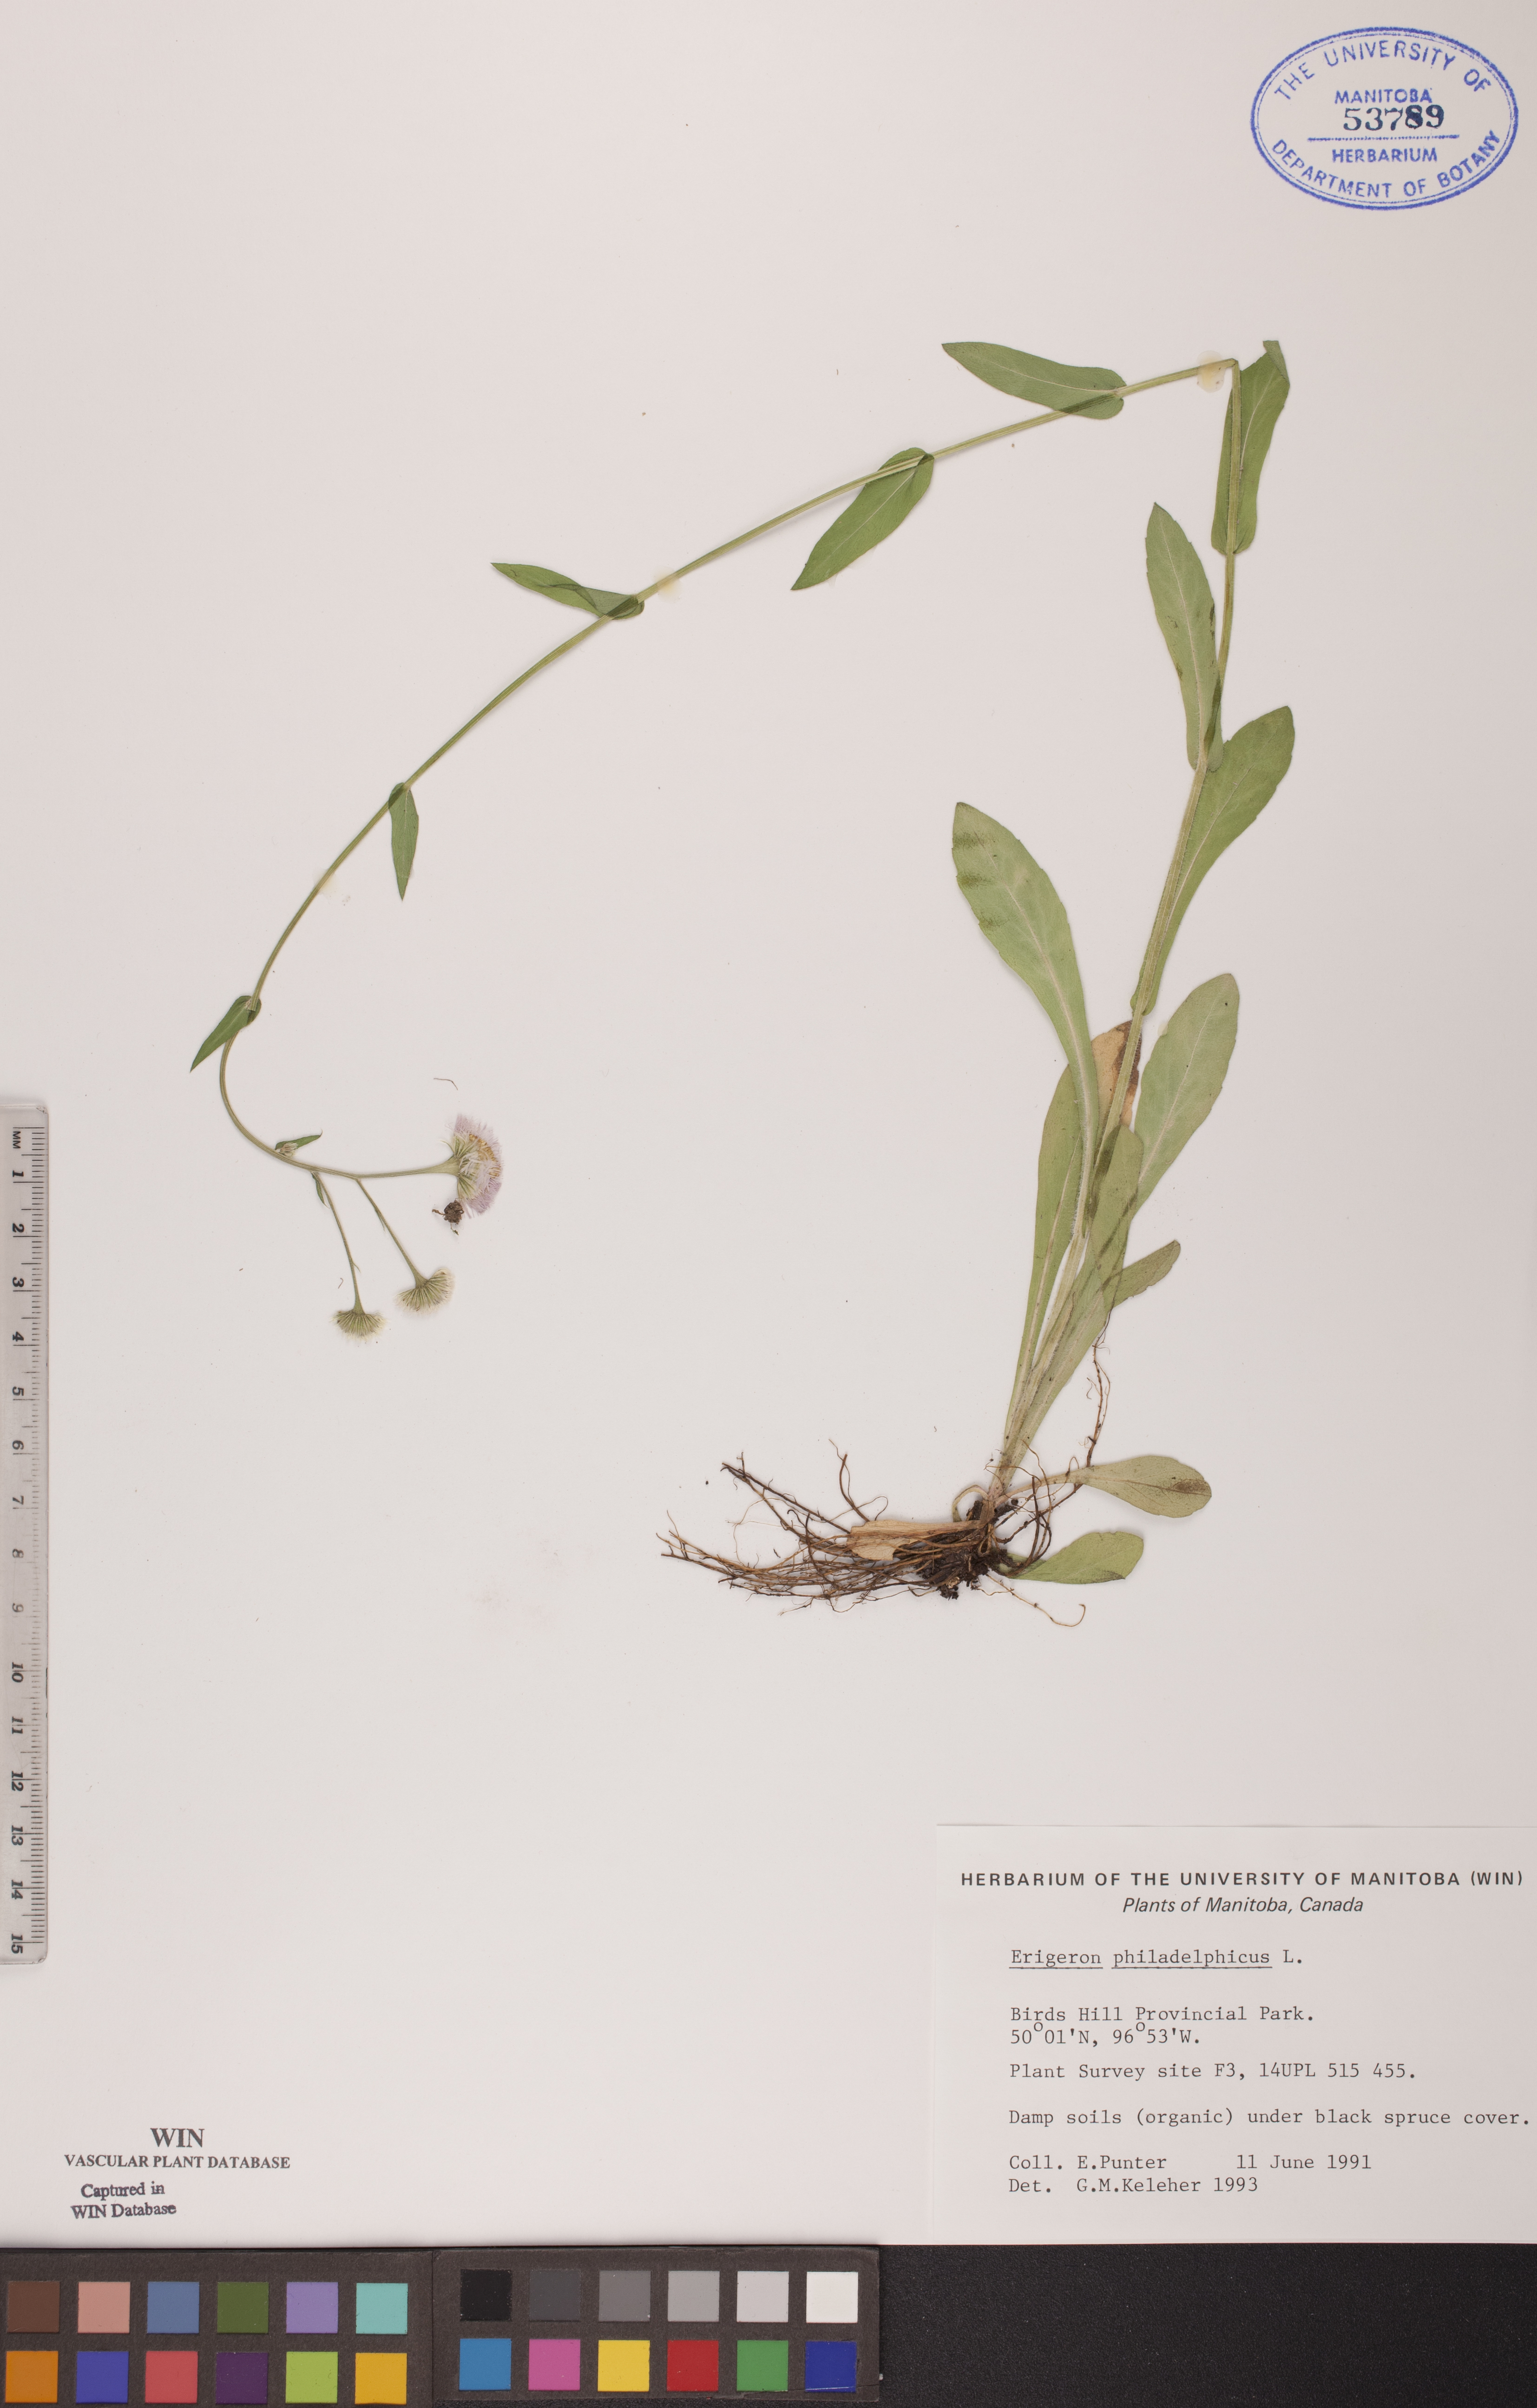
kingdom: Plantae
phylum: Tracheophyta
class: Magnoliopsida
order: Asterales
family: Asteraceae
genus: Erigeron
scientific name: Erigeron philadelphicus
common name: Robin's-plantain
